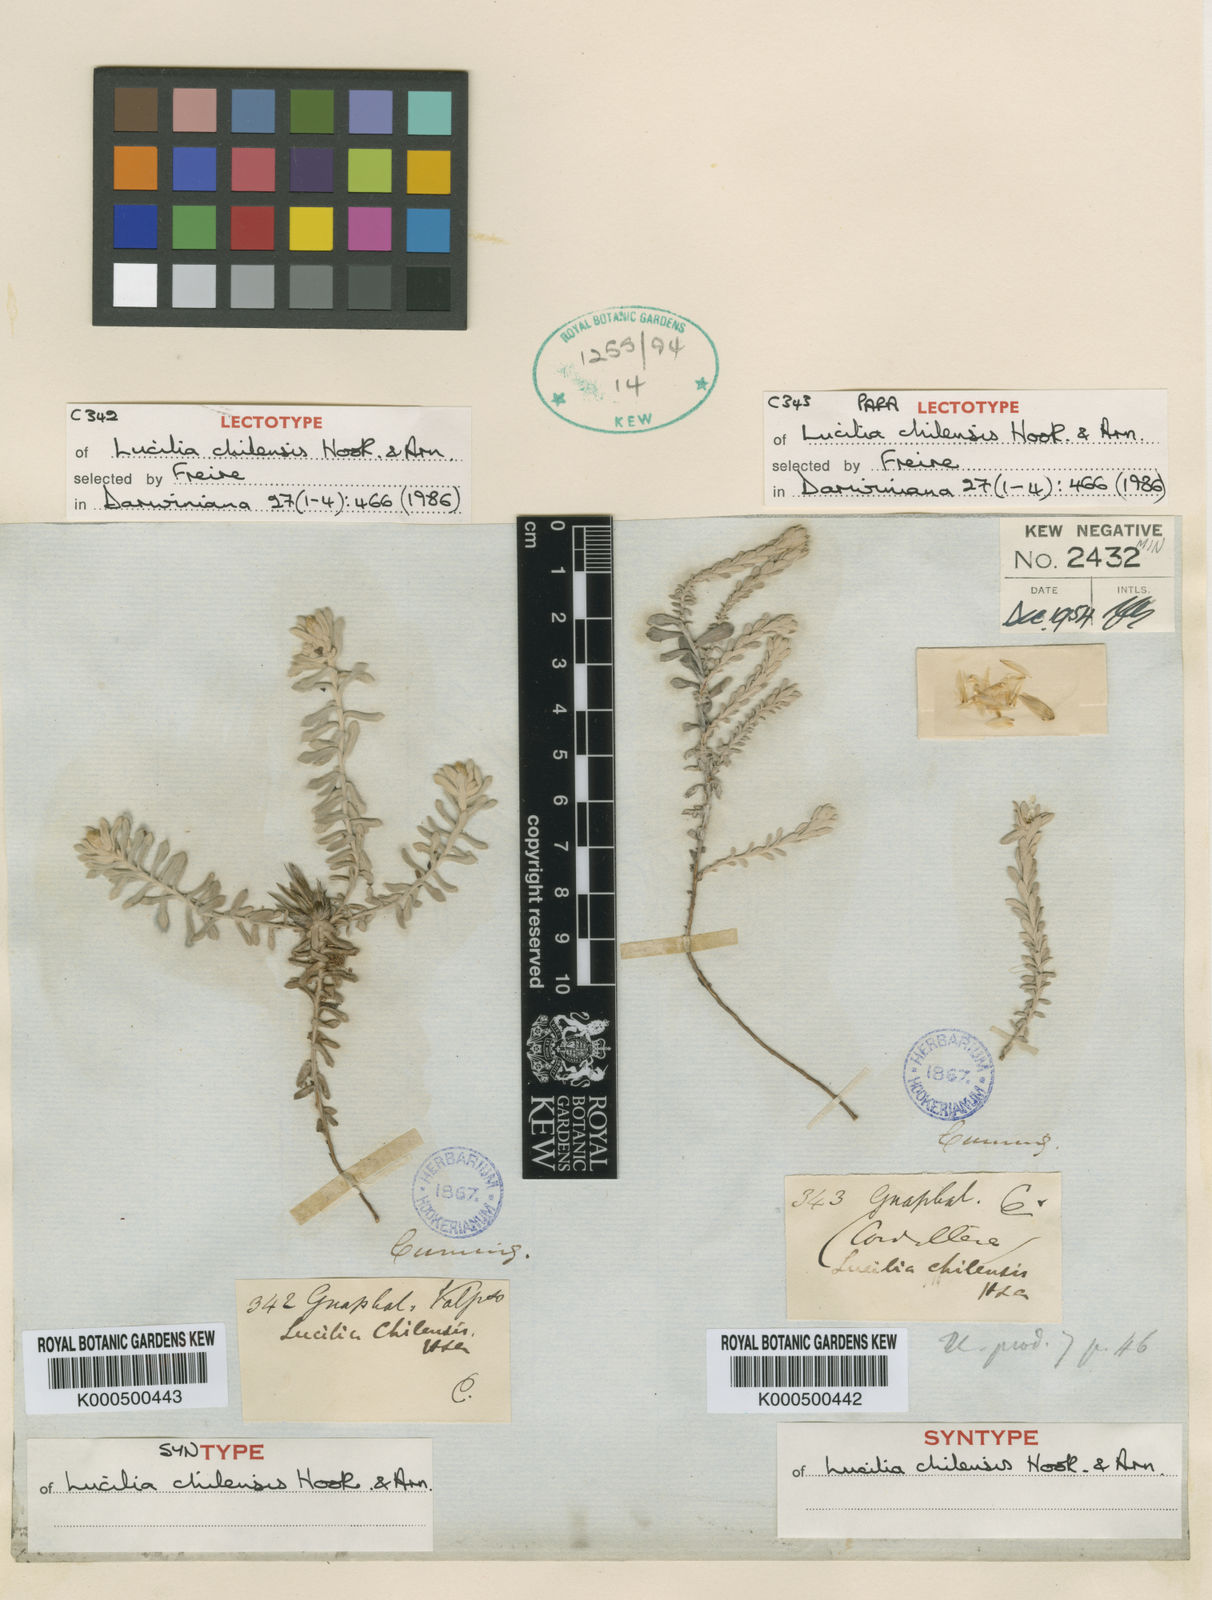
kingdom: Plantae
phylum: Tracheophyta
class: Magnoliopsida
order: Asterales
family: Asteraceae
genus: Belloa
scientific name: Belloa chilensis
